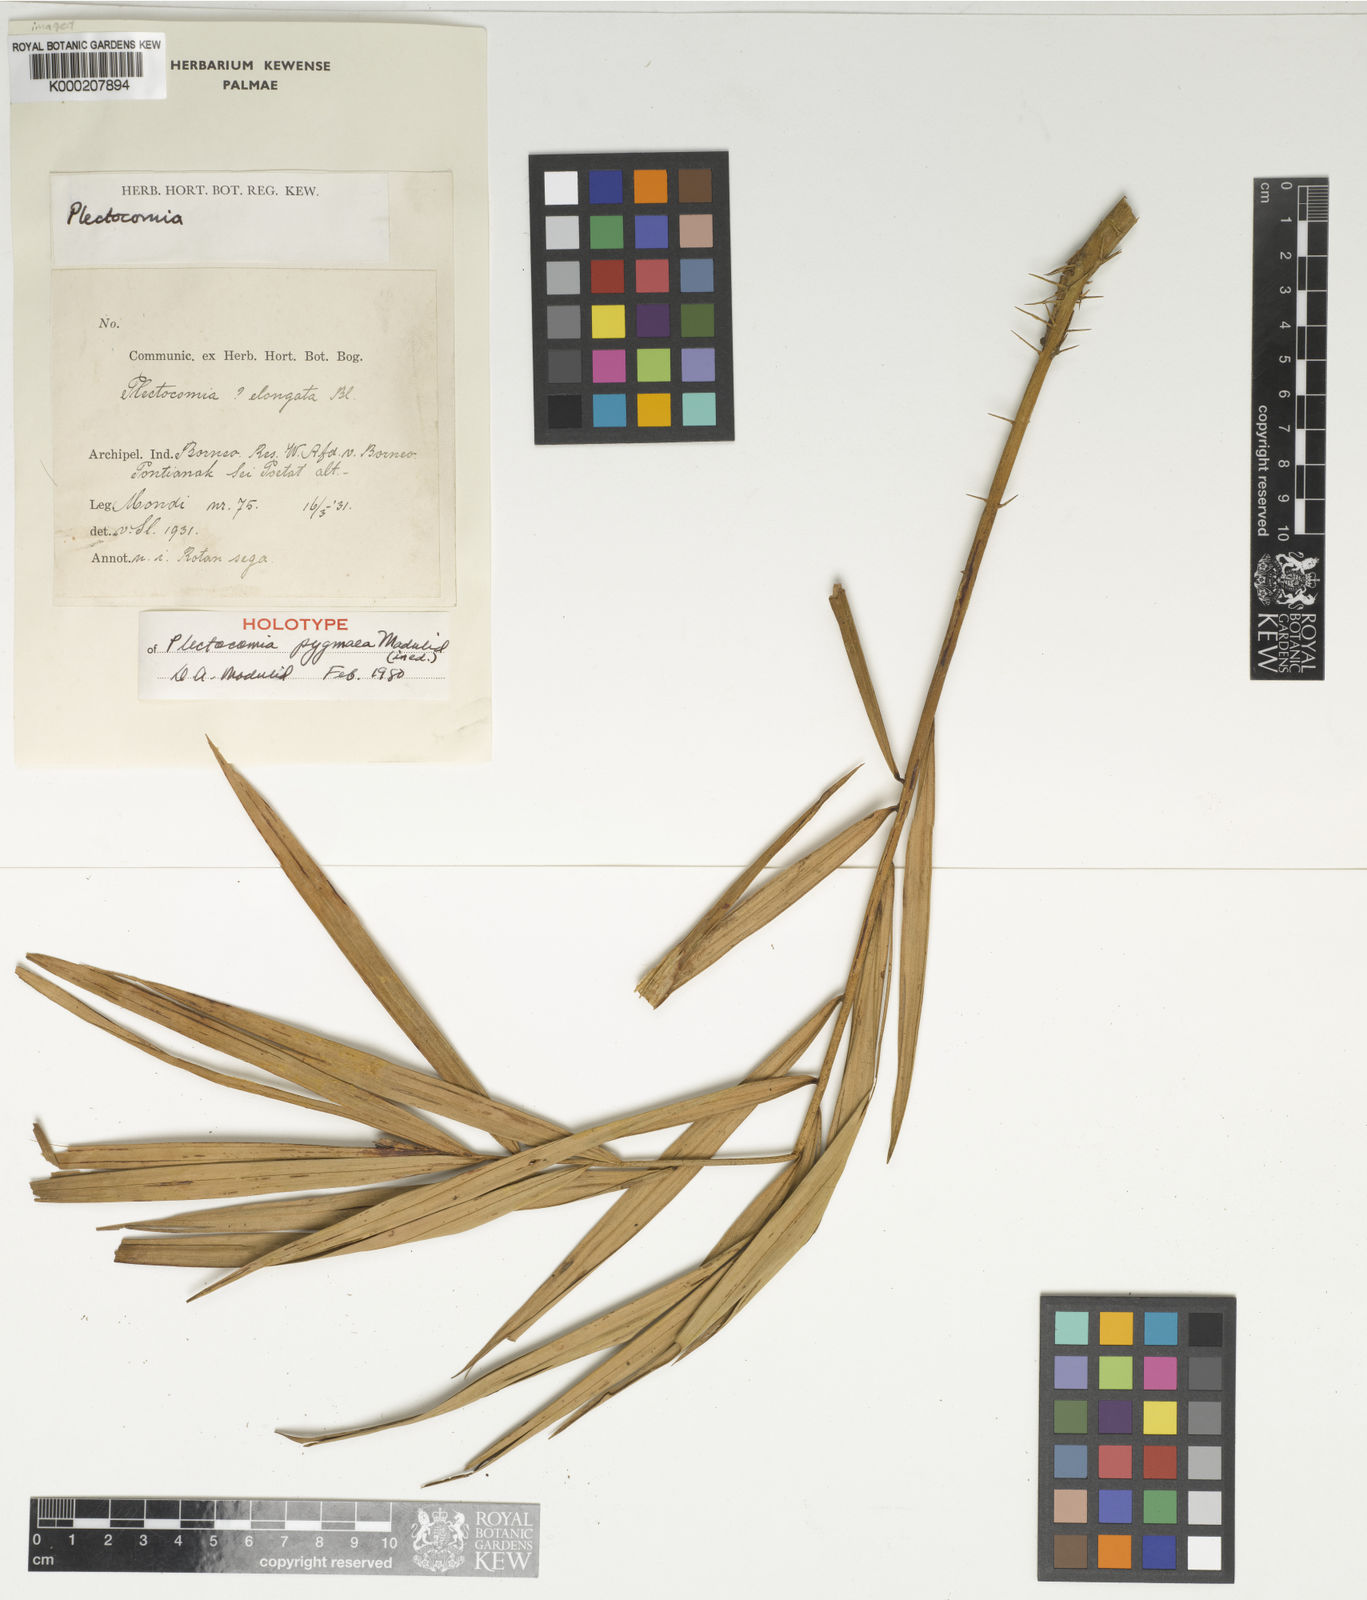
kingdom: Plantae
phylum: Tracheophyta
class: Liliopsida
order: Arecales
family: Arecaceae
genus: Plectocomia
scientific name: Plectocomia pygmaea
